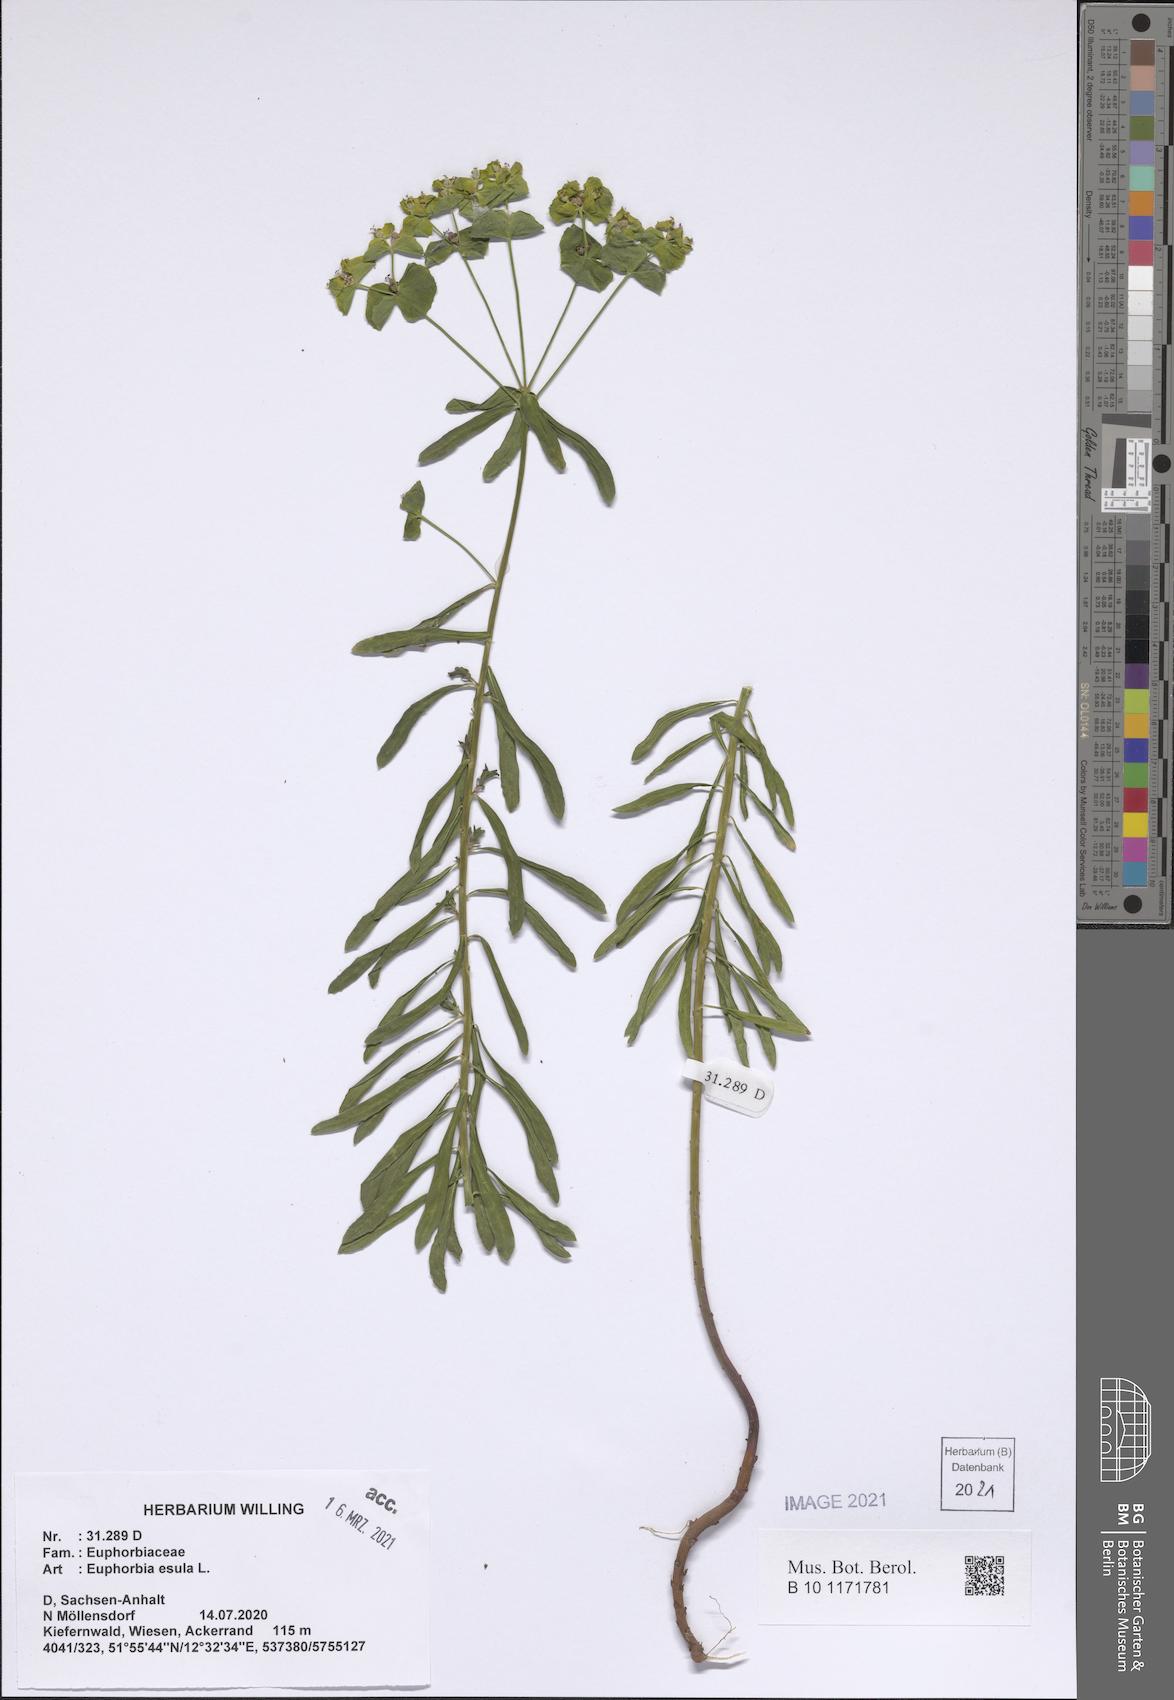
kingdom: Plantae
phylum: Tracheophyta
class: Magnoliopsida
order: Malpighiales
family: Euphorbiaceae
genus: Euphorbia
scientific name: Euphorbia esula
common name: Leafy spurge
